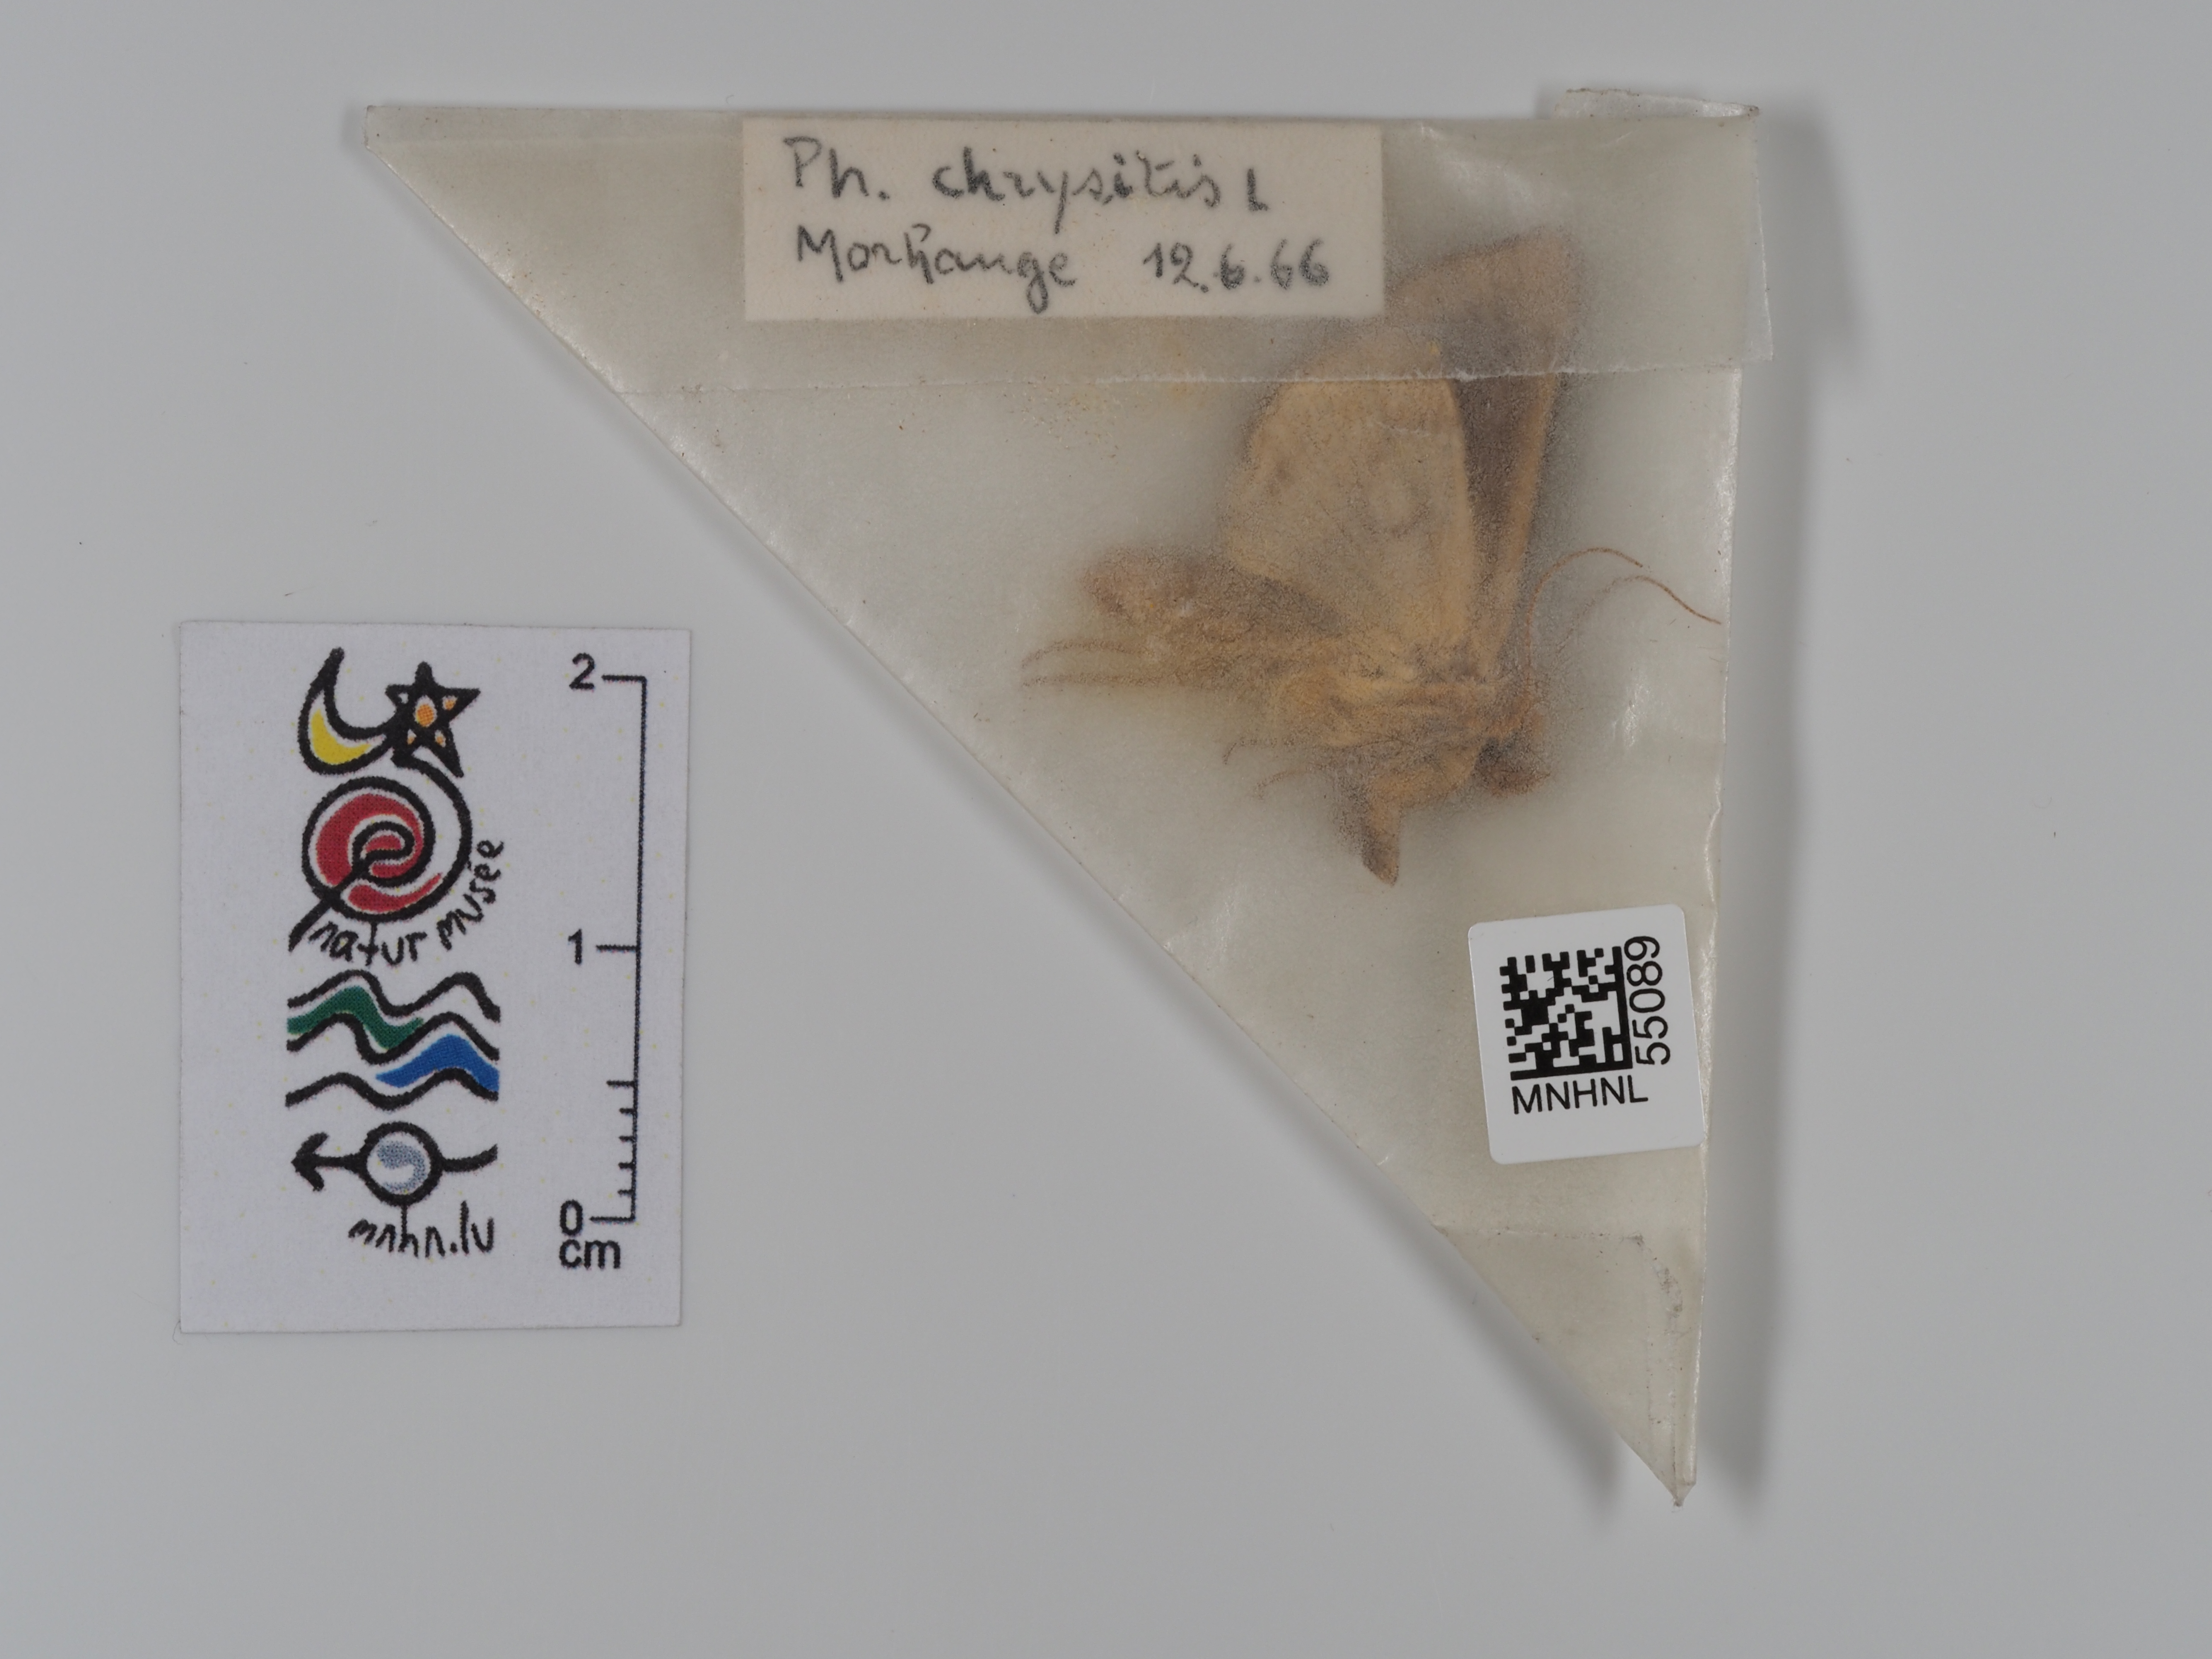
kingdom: Animalia
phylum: Arthropoda
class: Insecta
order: Lepidoptera
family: Noctuidae
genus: Diachrysia
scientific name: Diachrysia chrysitis
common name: Burnished brass
